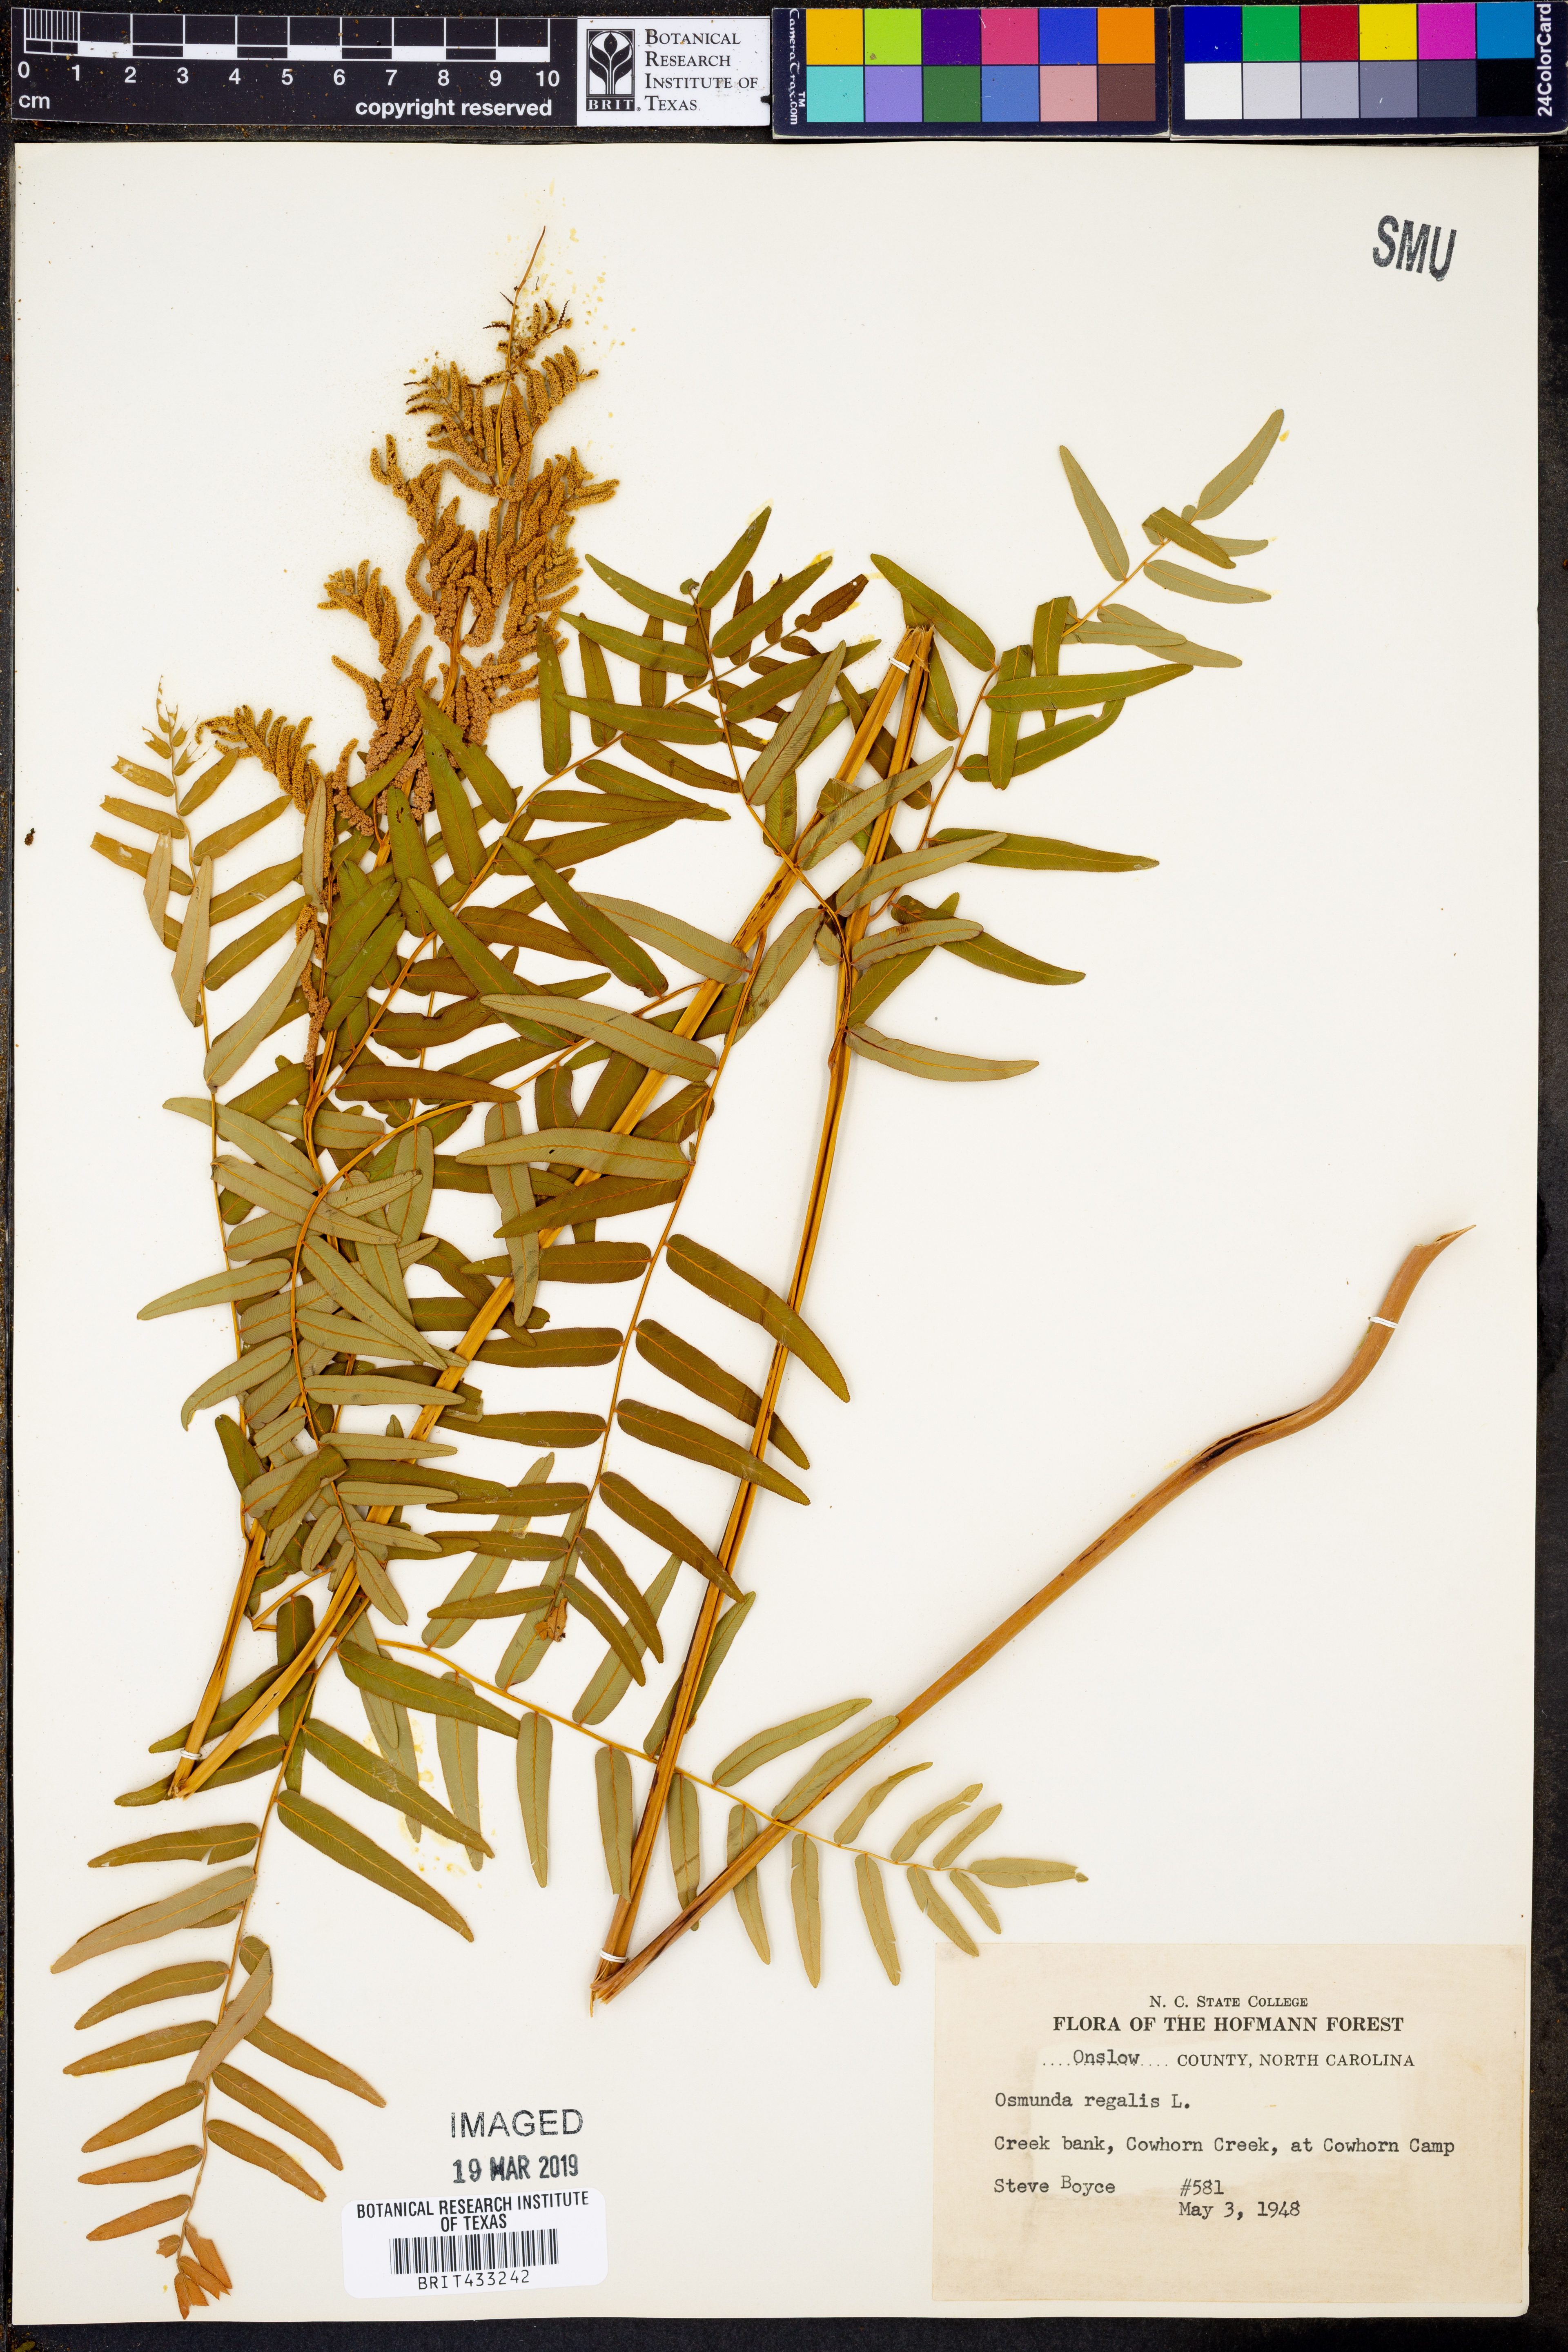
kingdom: Plantae
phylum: Tracheophyta
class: Polypodiopsida
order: Osmundales
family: Osmundaceae
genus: Osmunda
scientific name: Osmunda regalis
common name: Royal fern
